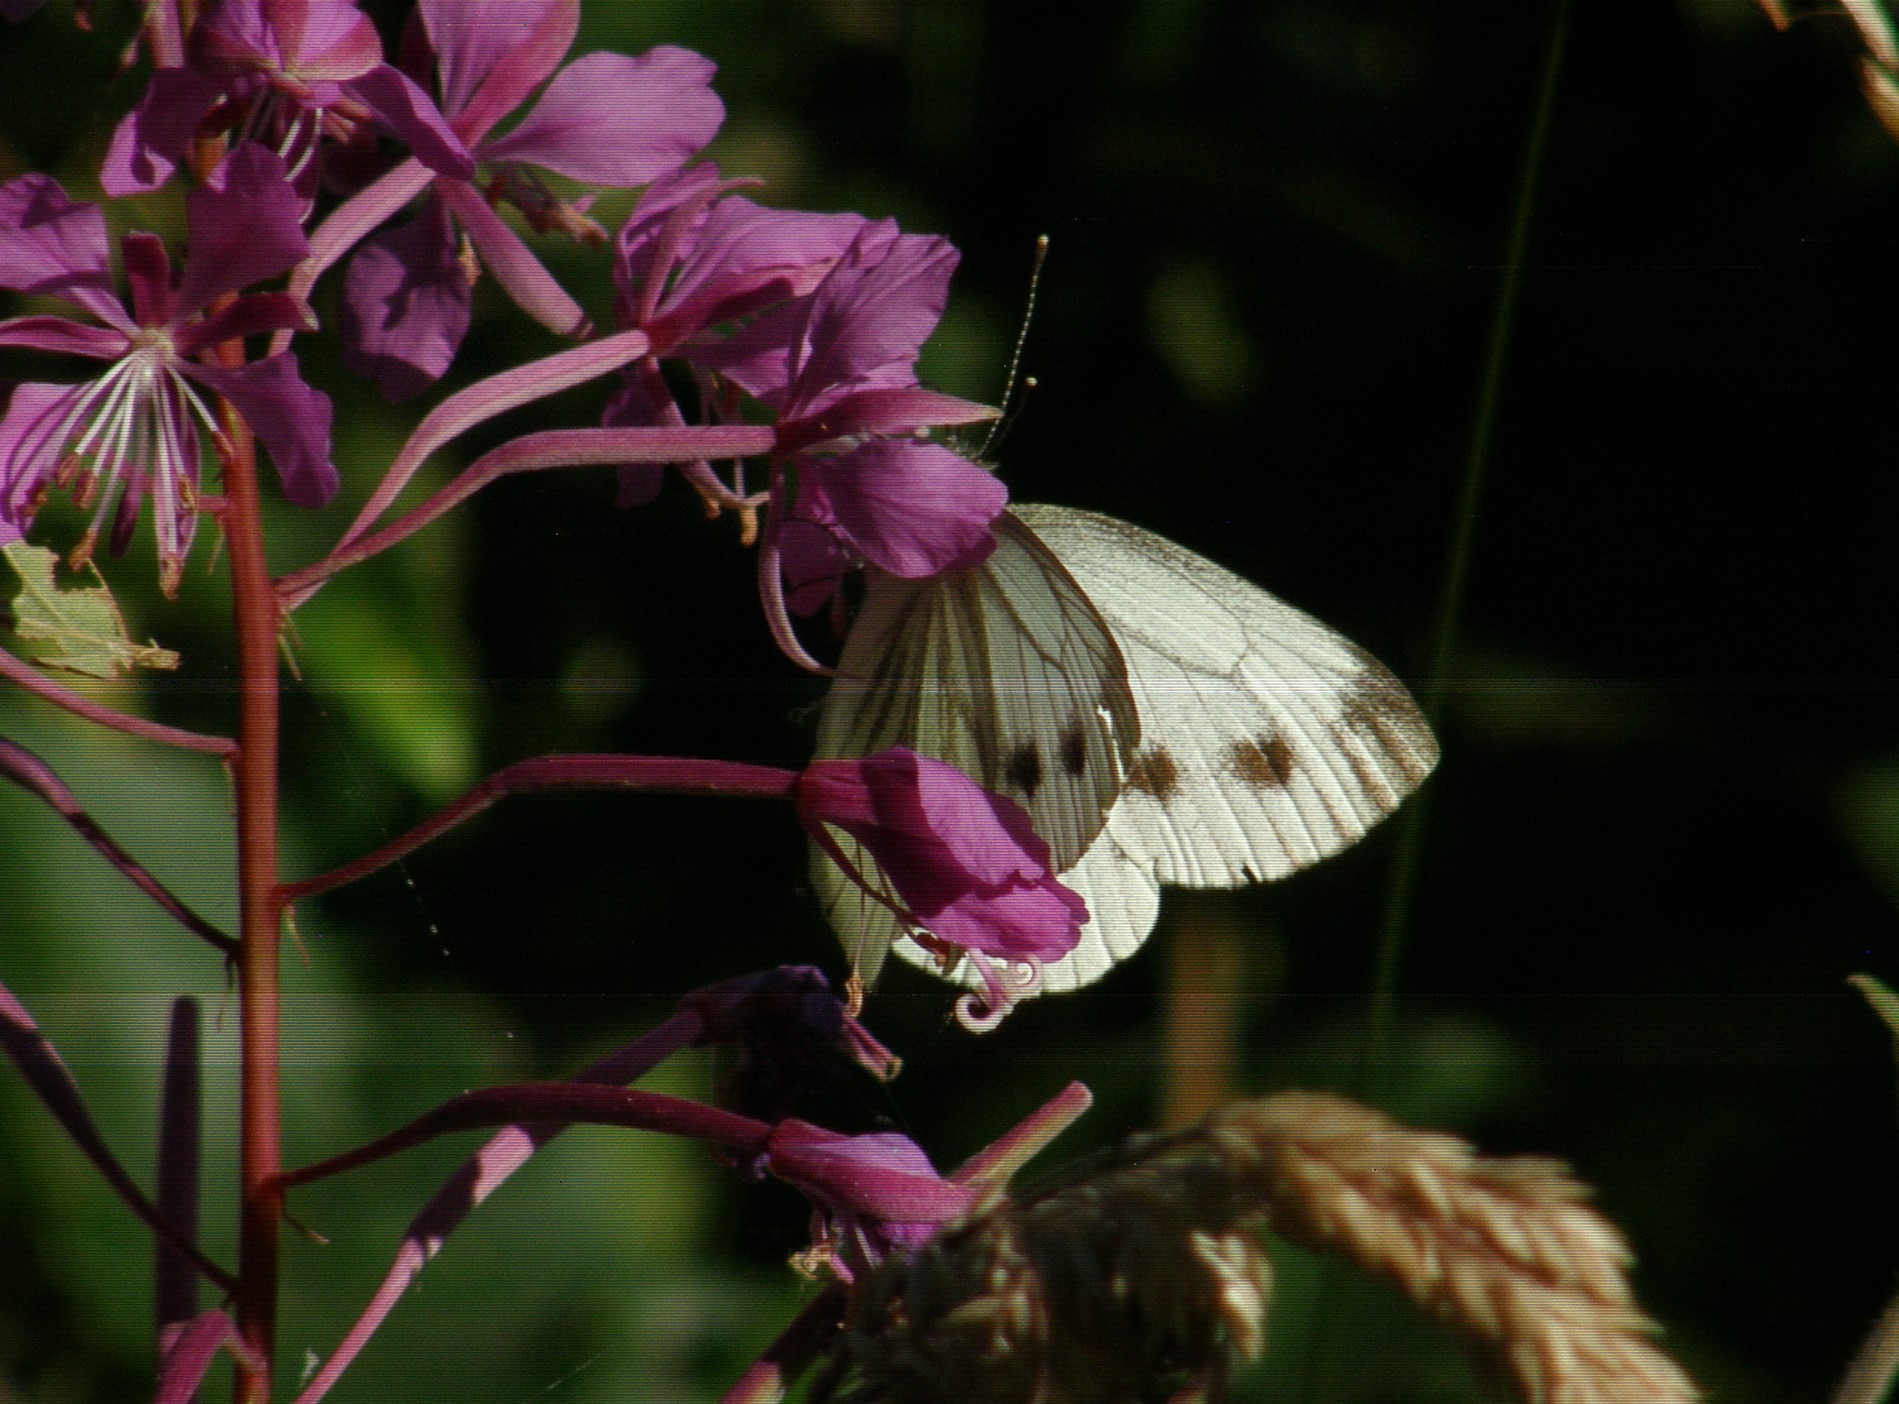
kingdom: Animalia
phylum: Arthropoda
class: Insecta
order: Lepidoptera
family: Pieridae
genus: Pieris
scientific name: Pieris napi
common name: Grønåret kålsommerfugl
